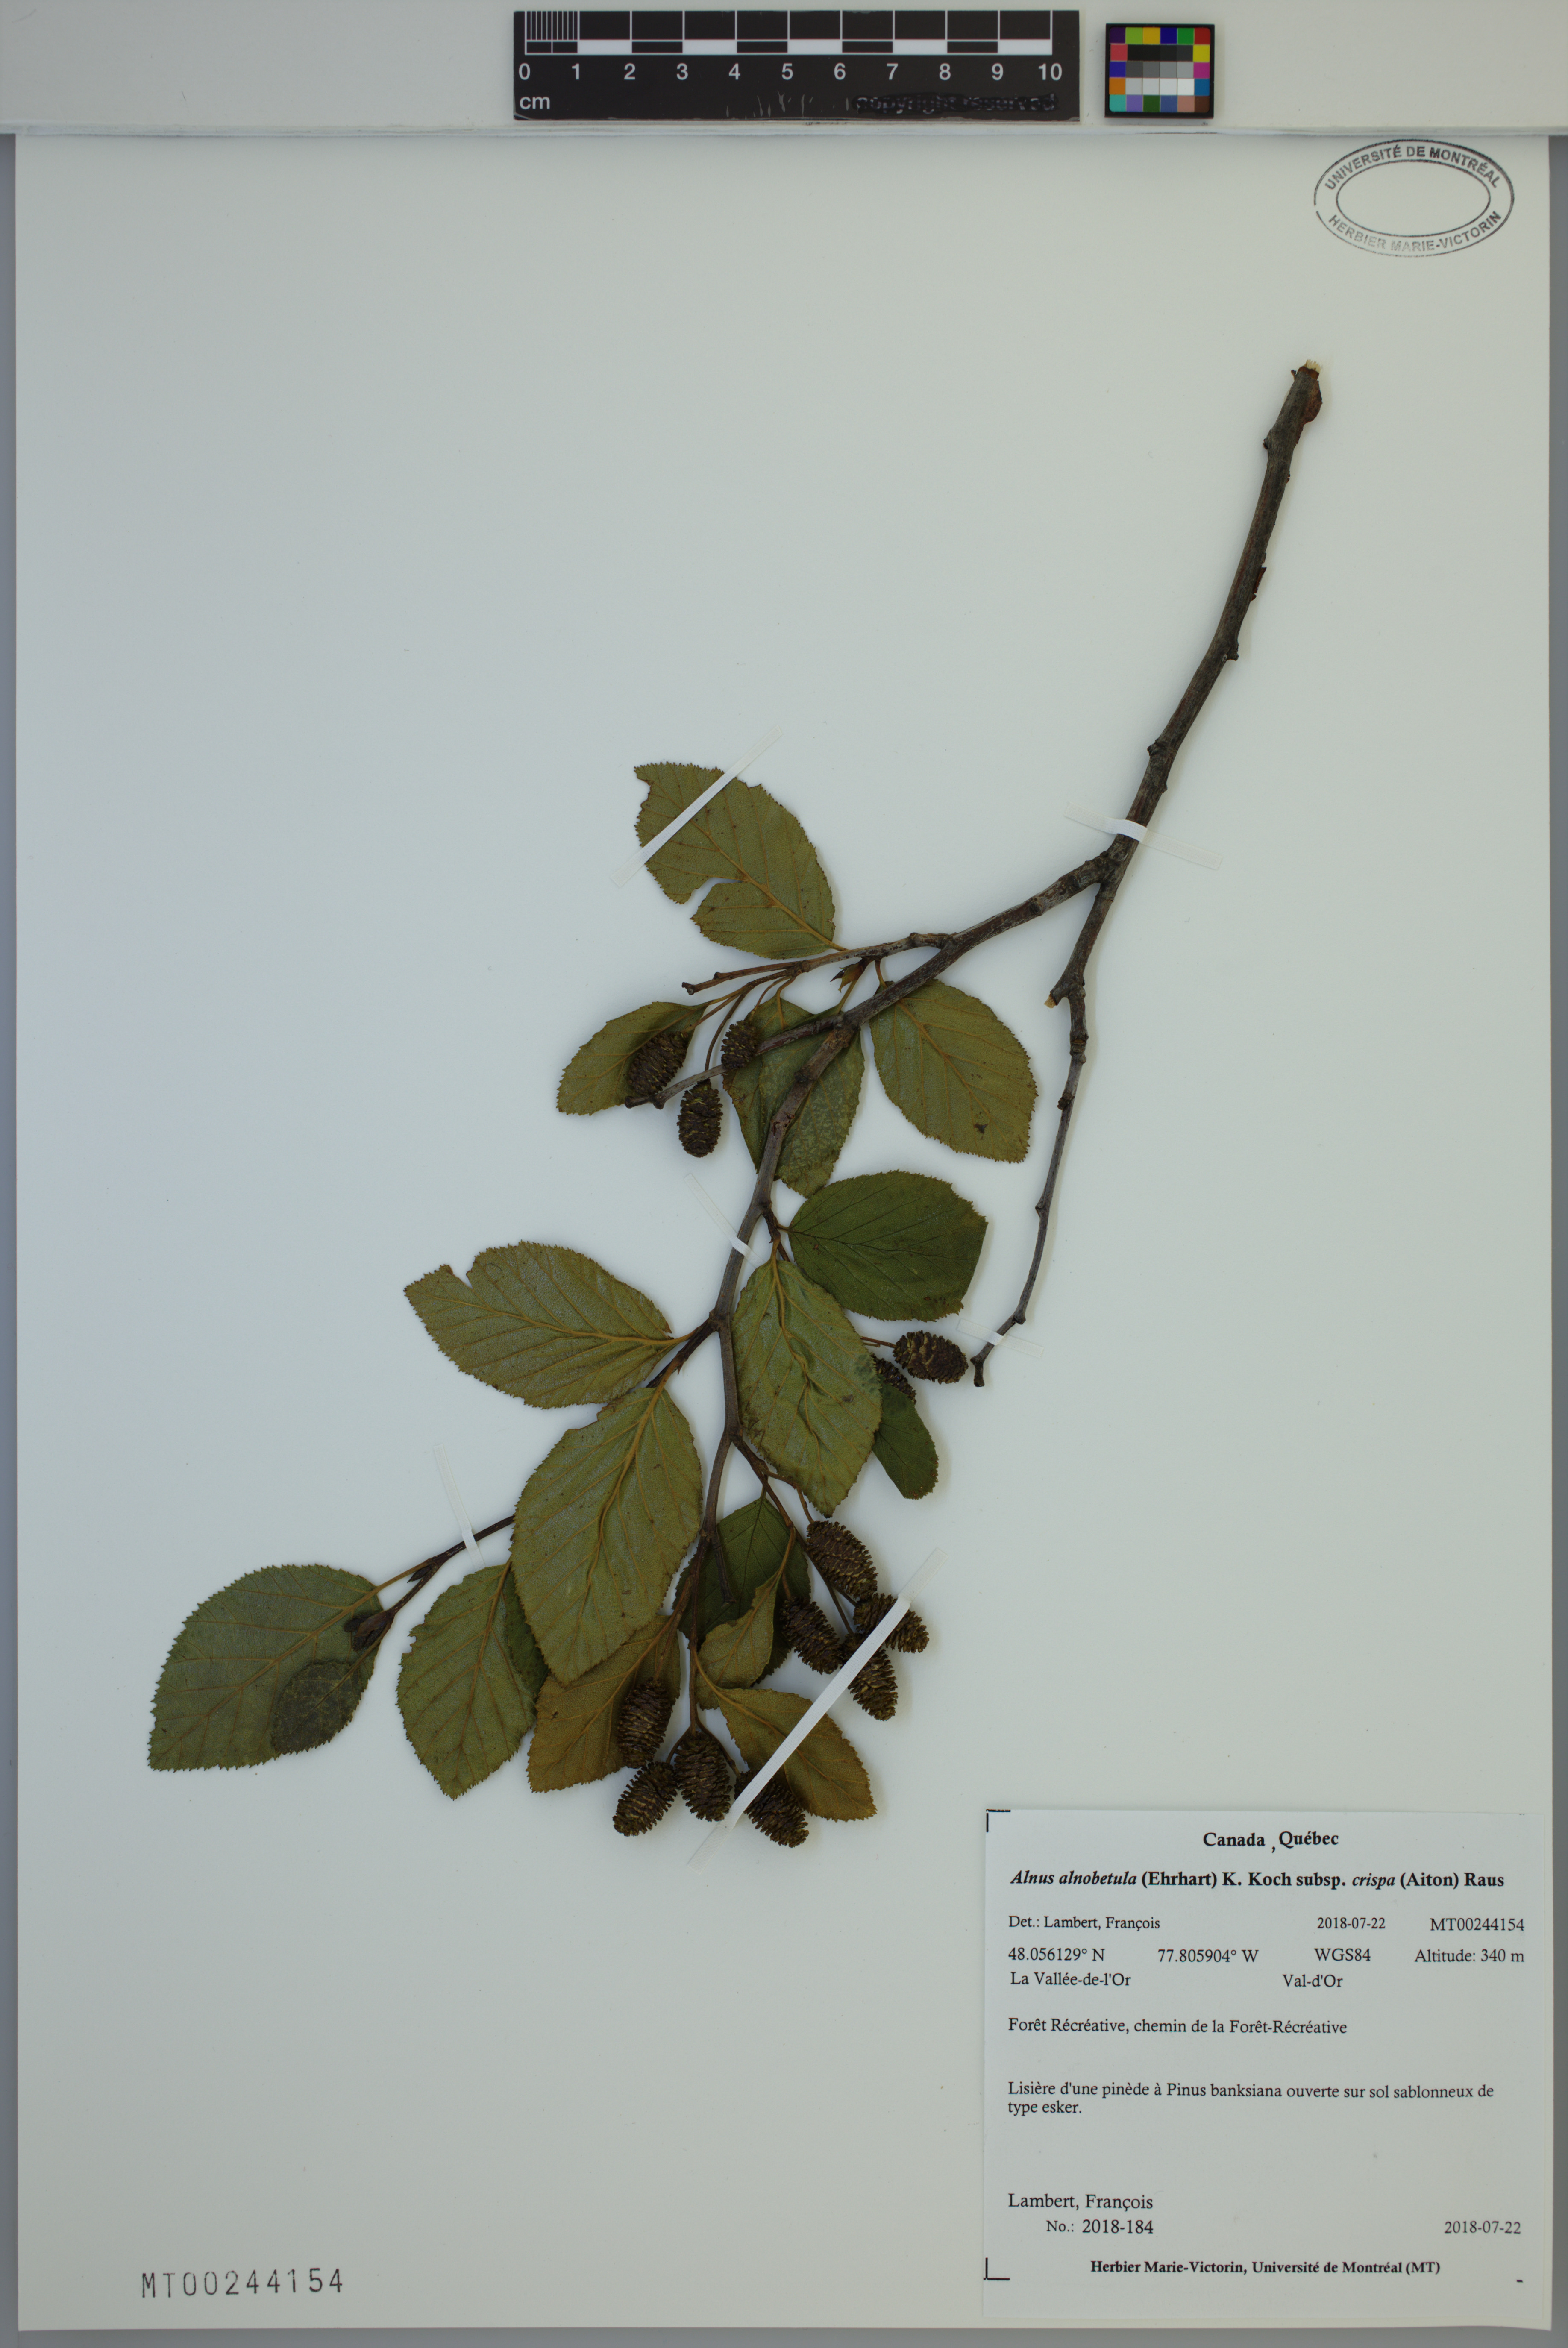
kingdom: Plantae
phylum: Tracheophyta
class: Magnoliopsida
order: Fagales
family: Betulaceae
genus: Alnus
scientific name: Alnus alnobetula
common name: Green alder
